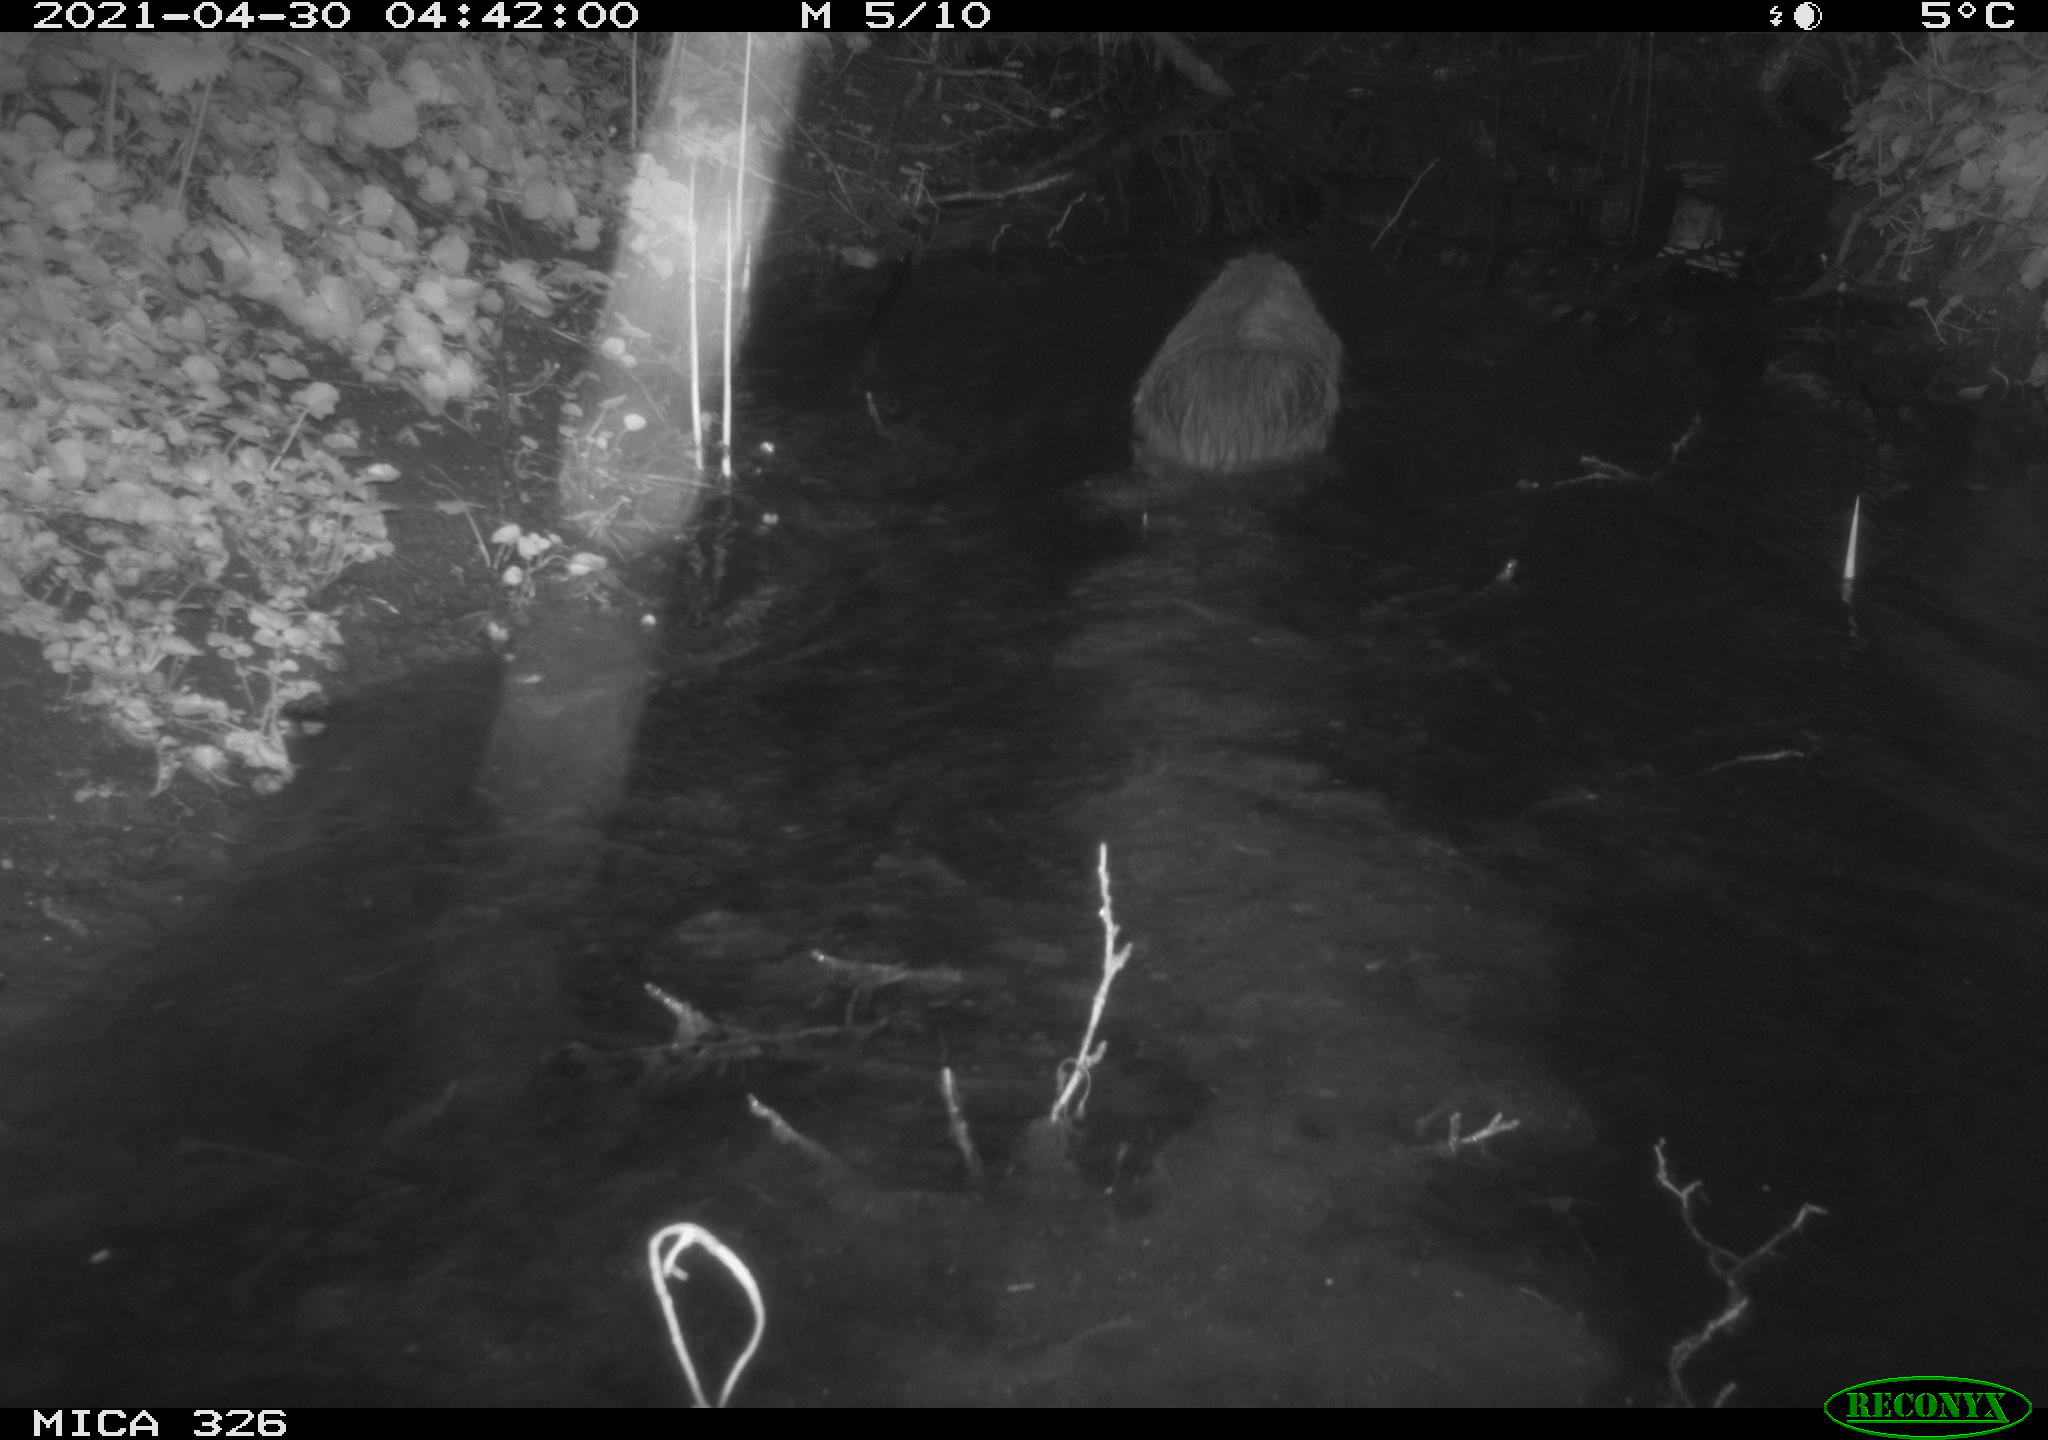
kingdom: Animalia
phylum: Chordata
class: Mammalia
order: Rodentia
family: Myocastoridae
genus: Myocastor
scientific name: Myocastor coypus
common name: Coypu
